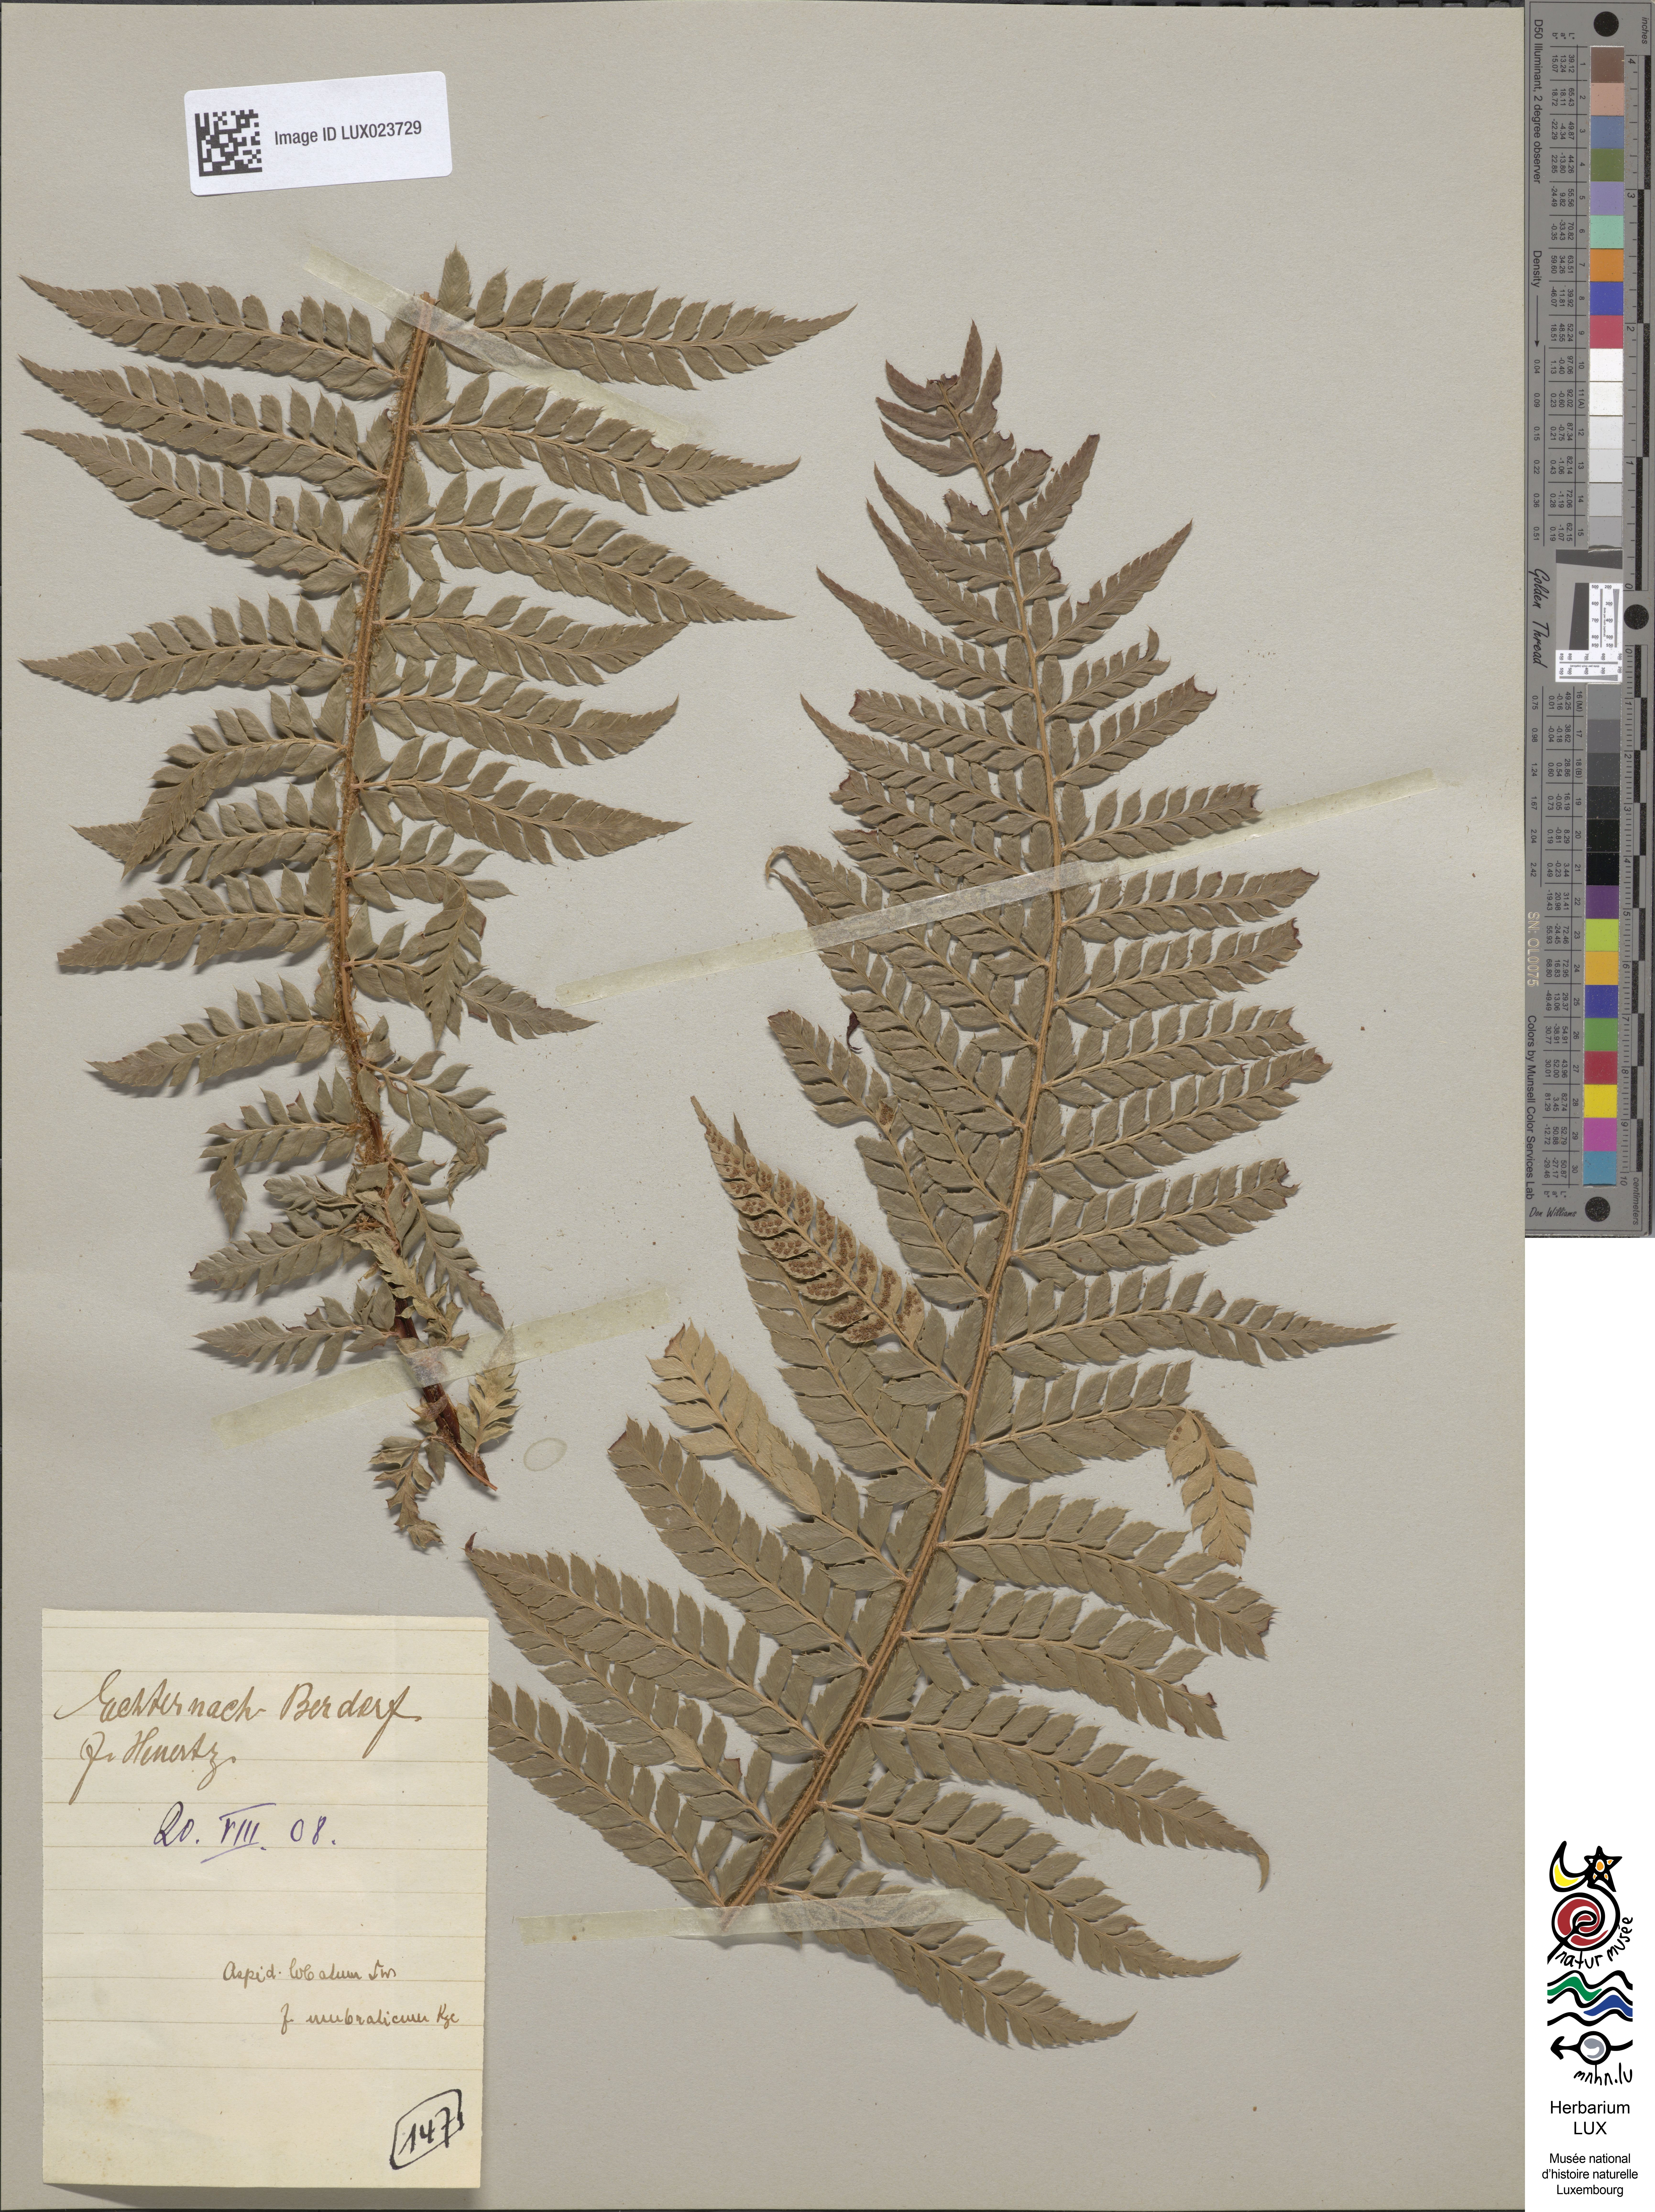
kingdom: Plantae
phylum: Tracheophyta
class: Polypodiopsida
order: Polypodiales
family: Dryopteridaceae
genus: Polystichum
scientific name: Polystichum aculeatum
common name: Hard shield-fern
